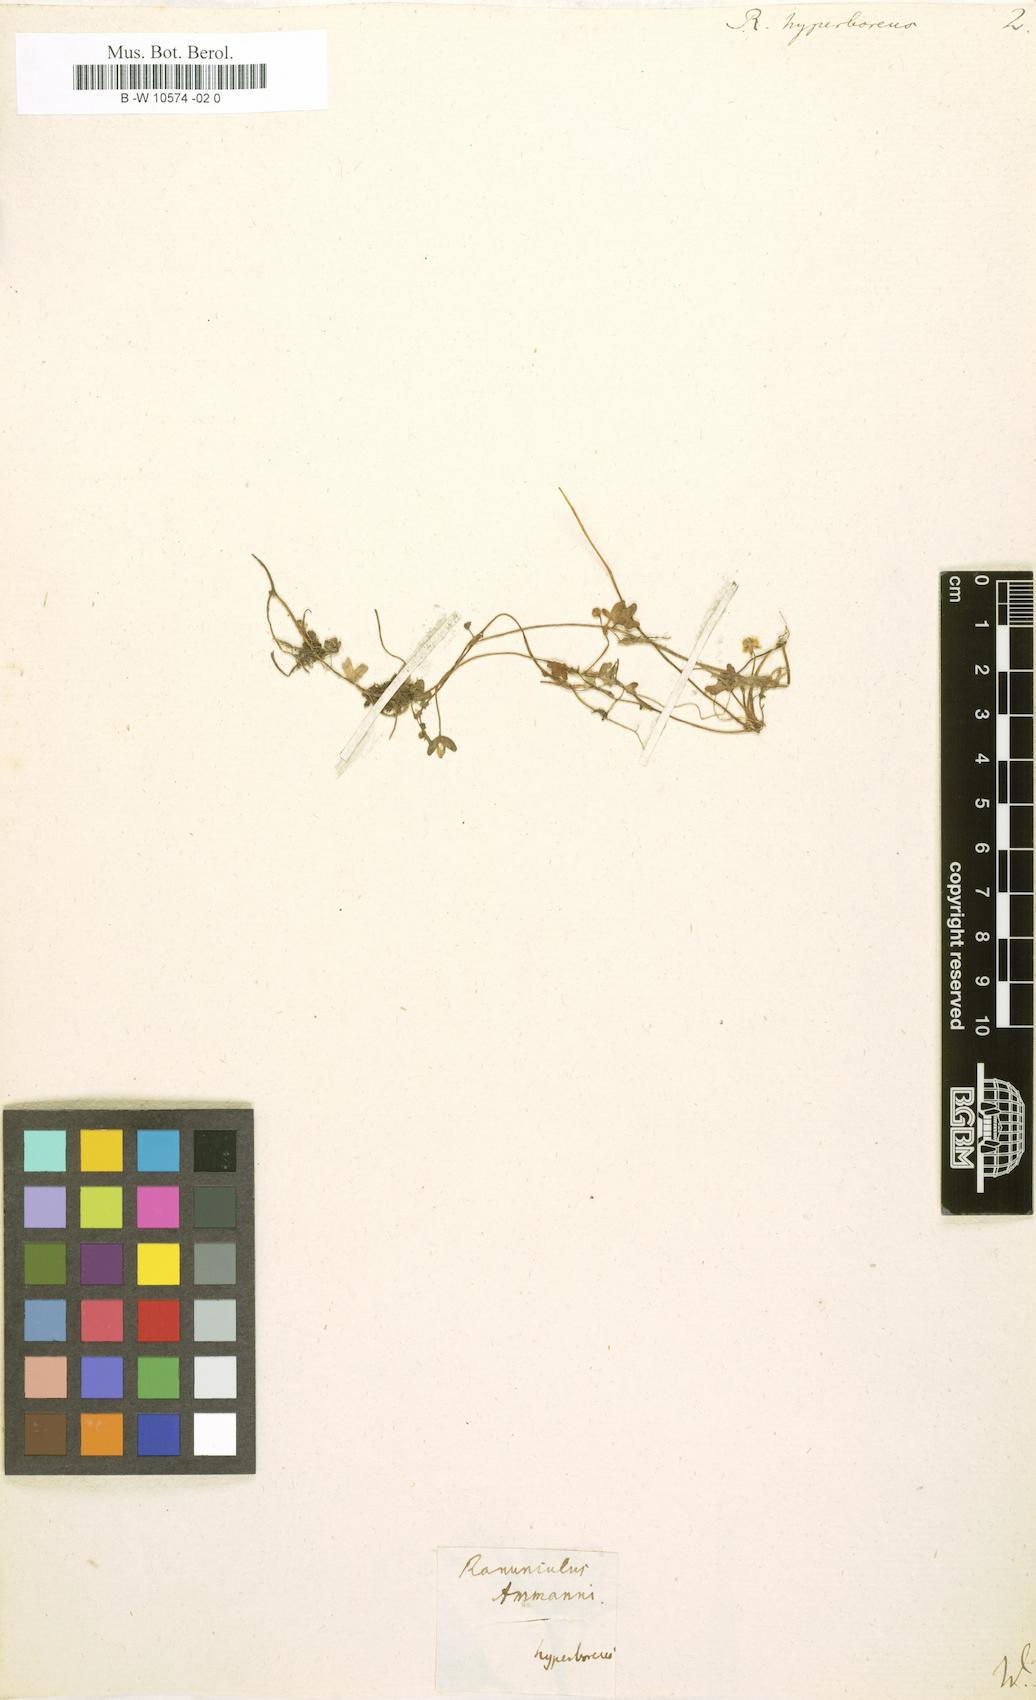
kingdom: Plantae
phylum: Tracheophyta
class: Magnoliopsida
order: Ranunculales
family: Ranunculaceae
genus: Ranunculus
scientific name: Ranunculus hyperboreus
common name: Arctic buttercup
